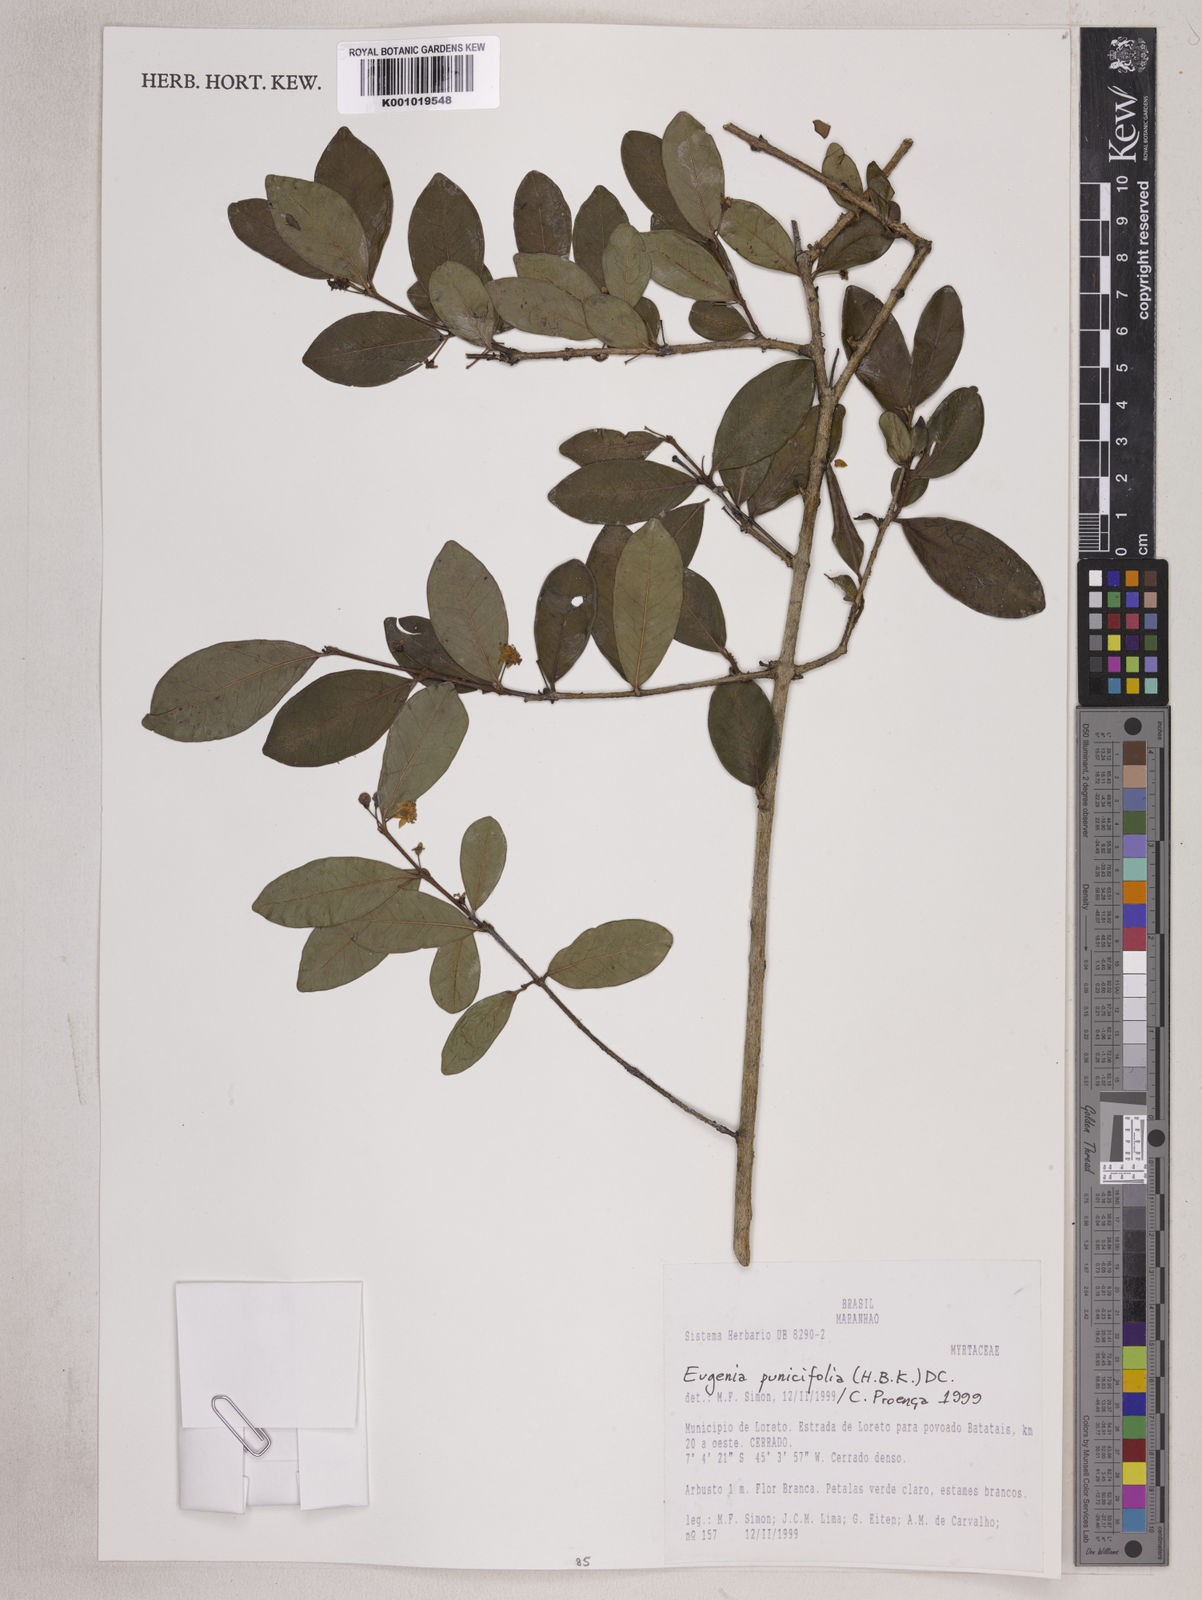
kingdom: Plantae
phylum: Tracheophyta
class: Magnoliopsida
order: Myrtales
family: Myrtaceae
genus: Eugenia
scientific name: Eugenia punicifolia
